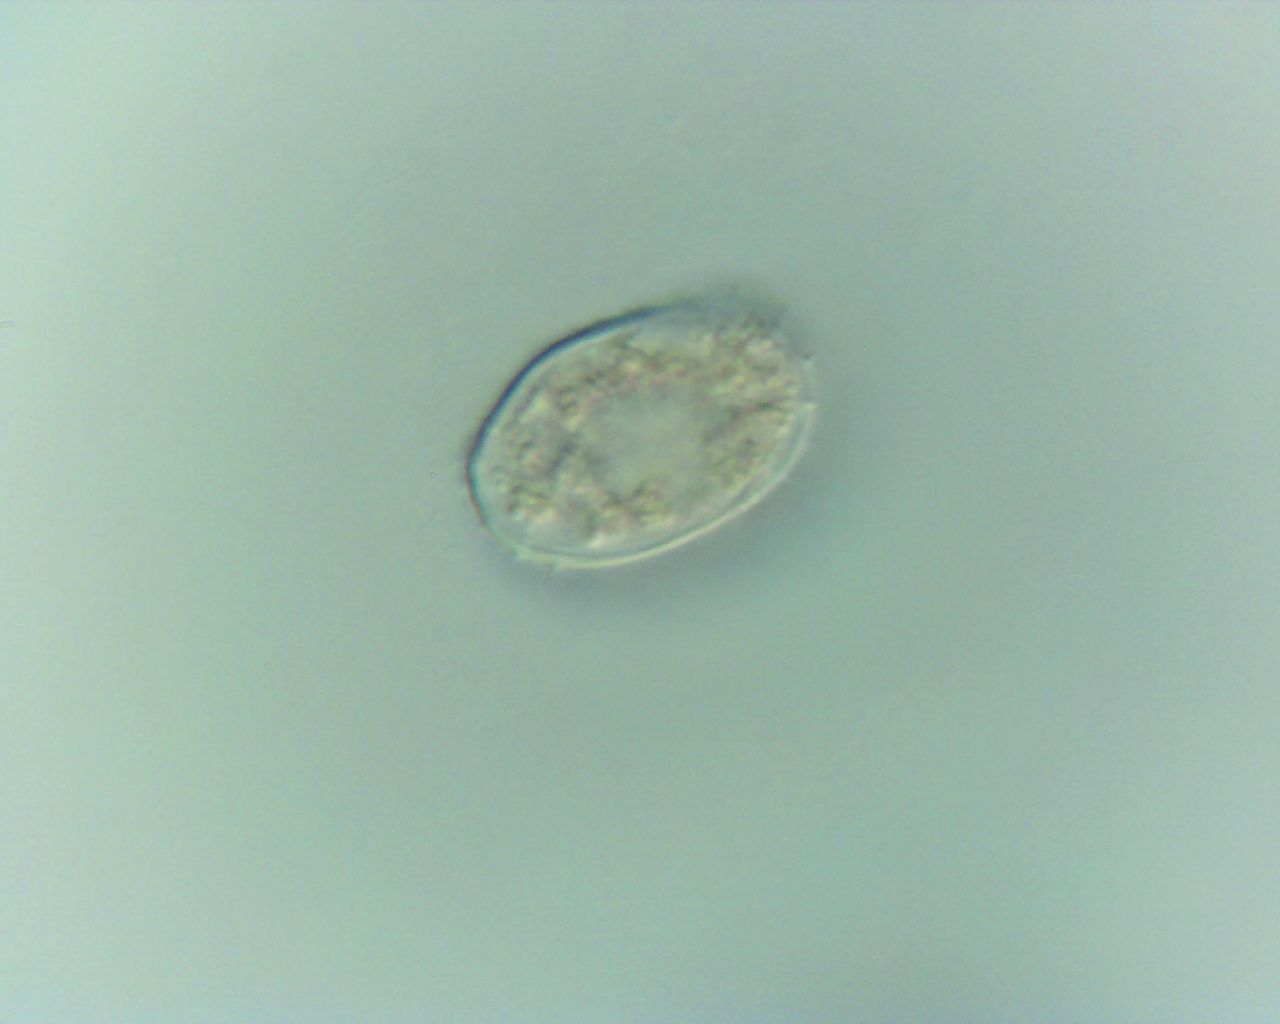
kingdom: Fungi
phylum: Basidiomycota
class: Pucciniomycetes
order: Pucciniales
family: Pucciniaceae
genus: Puccinia
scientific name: Puccinia circaeae
